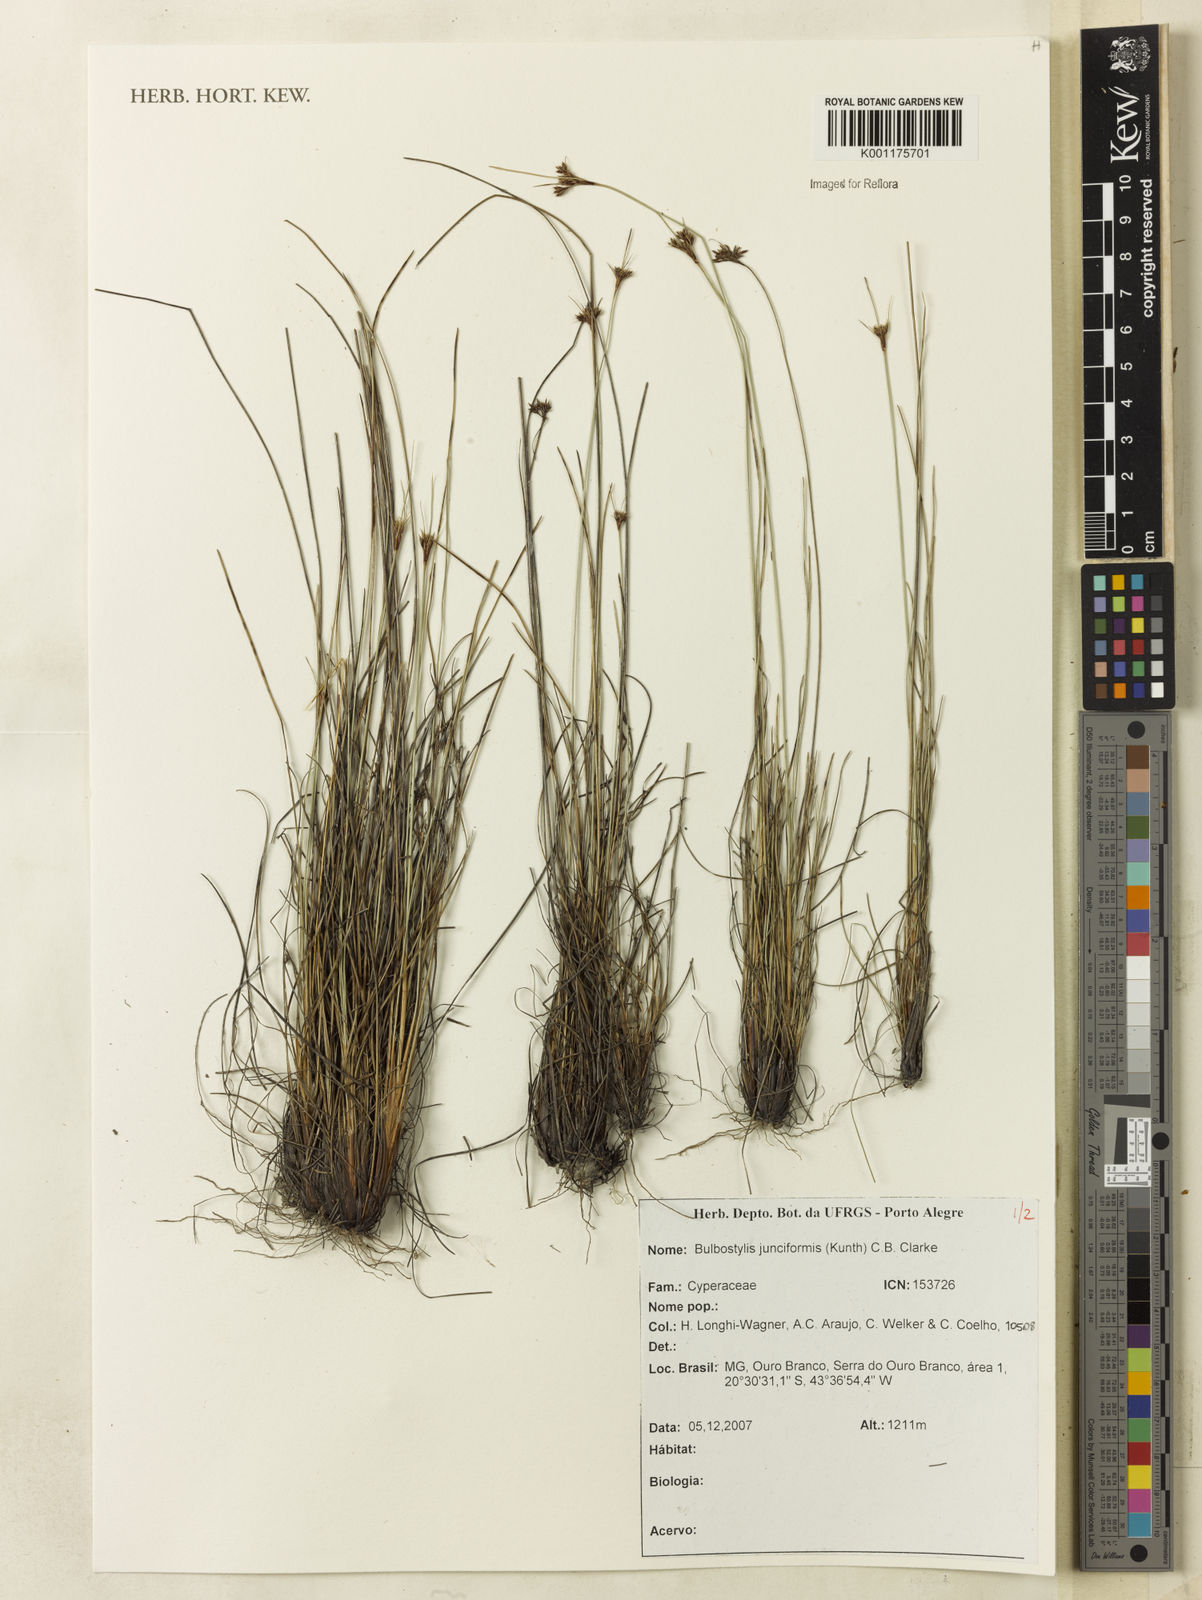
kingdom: Plantae
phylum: Tracheophyta
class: Liliopsida
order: Poales
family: Cyperaceae
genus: Bulbostylis
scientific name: Bulbostylis junciformis
